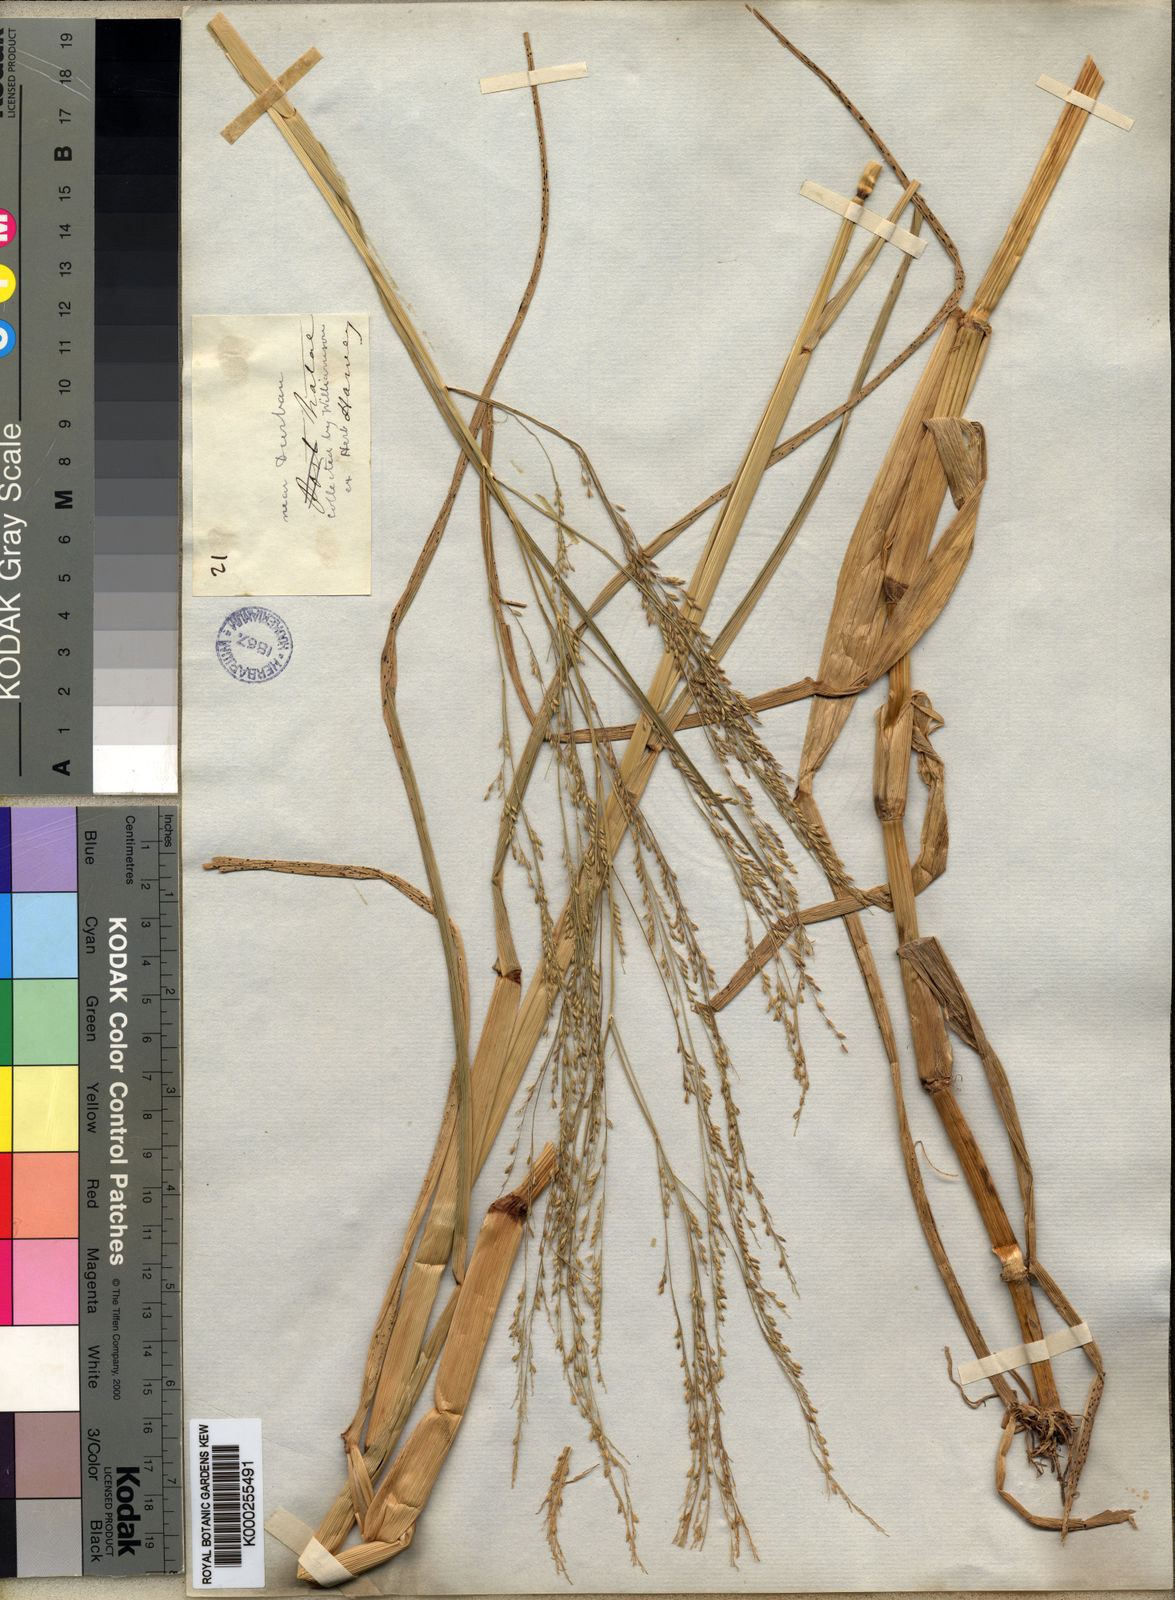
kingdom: Plantae
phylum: Tracheophyta
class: Liliopsida
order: Poales
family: Poaceae
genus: Panicum
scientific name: Panicum subalbidum
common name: Elbow buffalo grass
